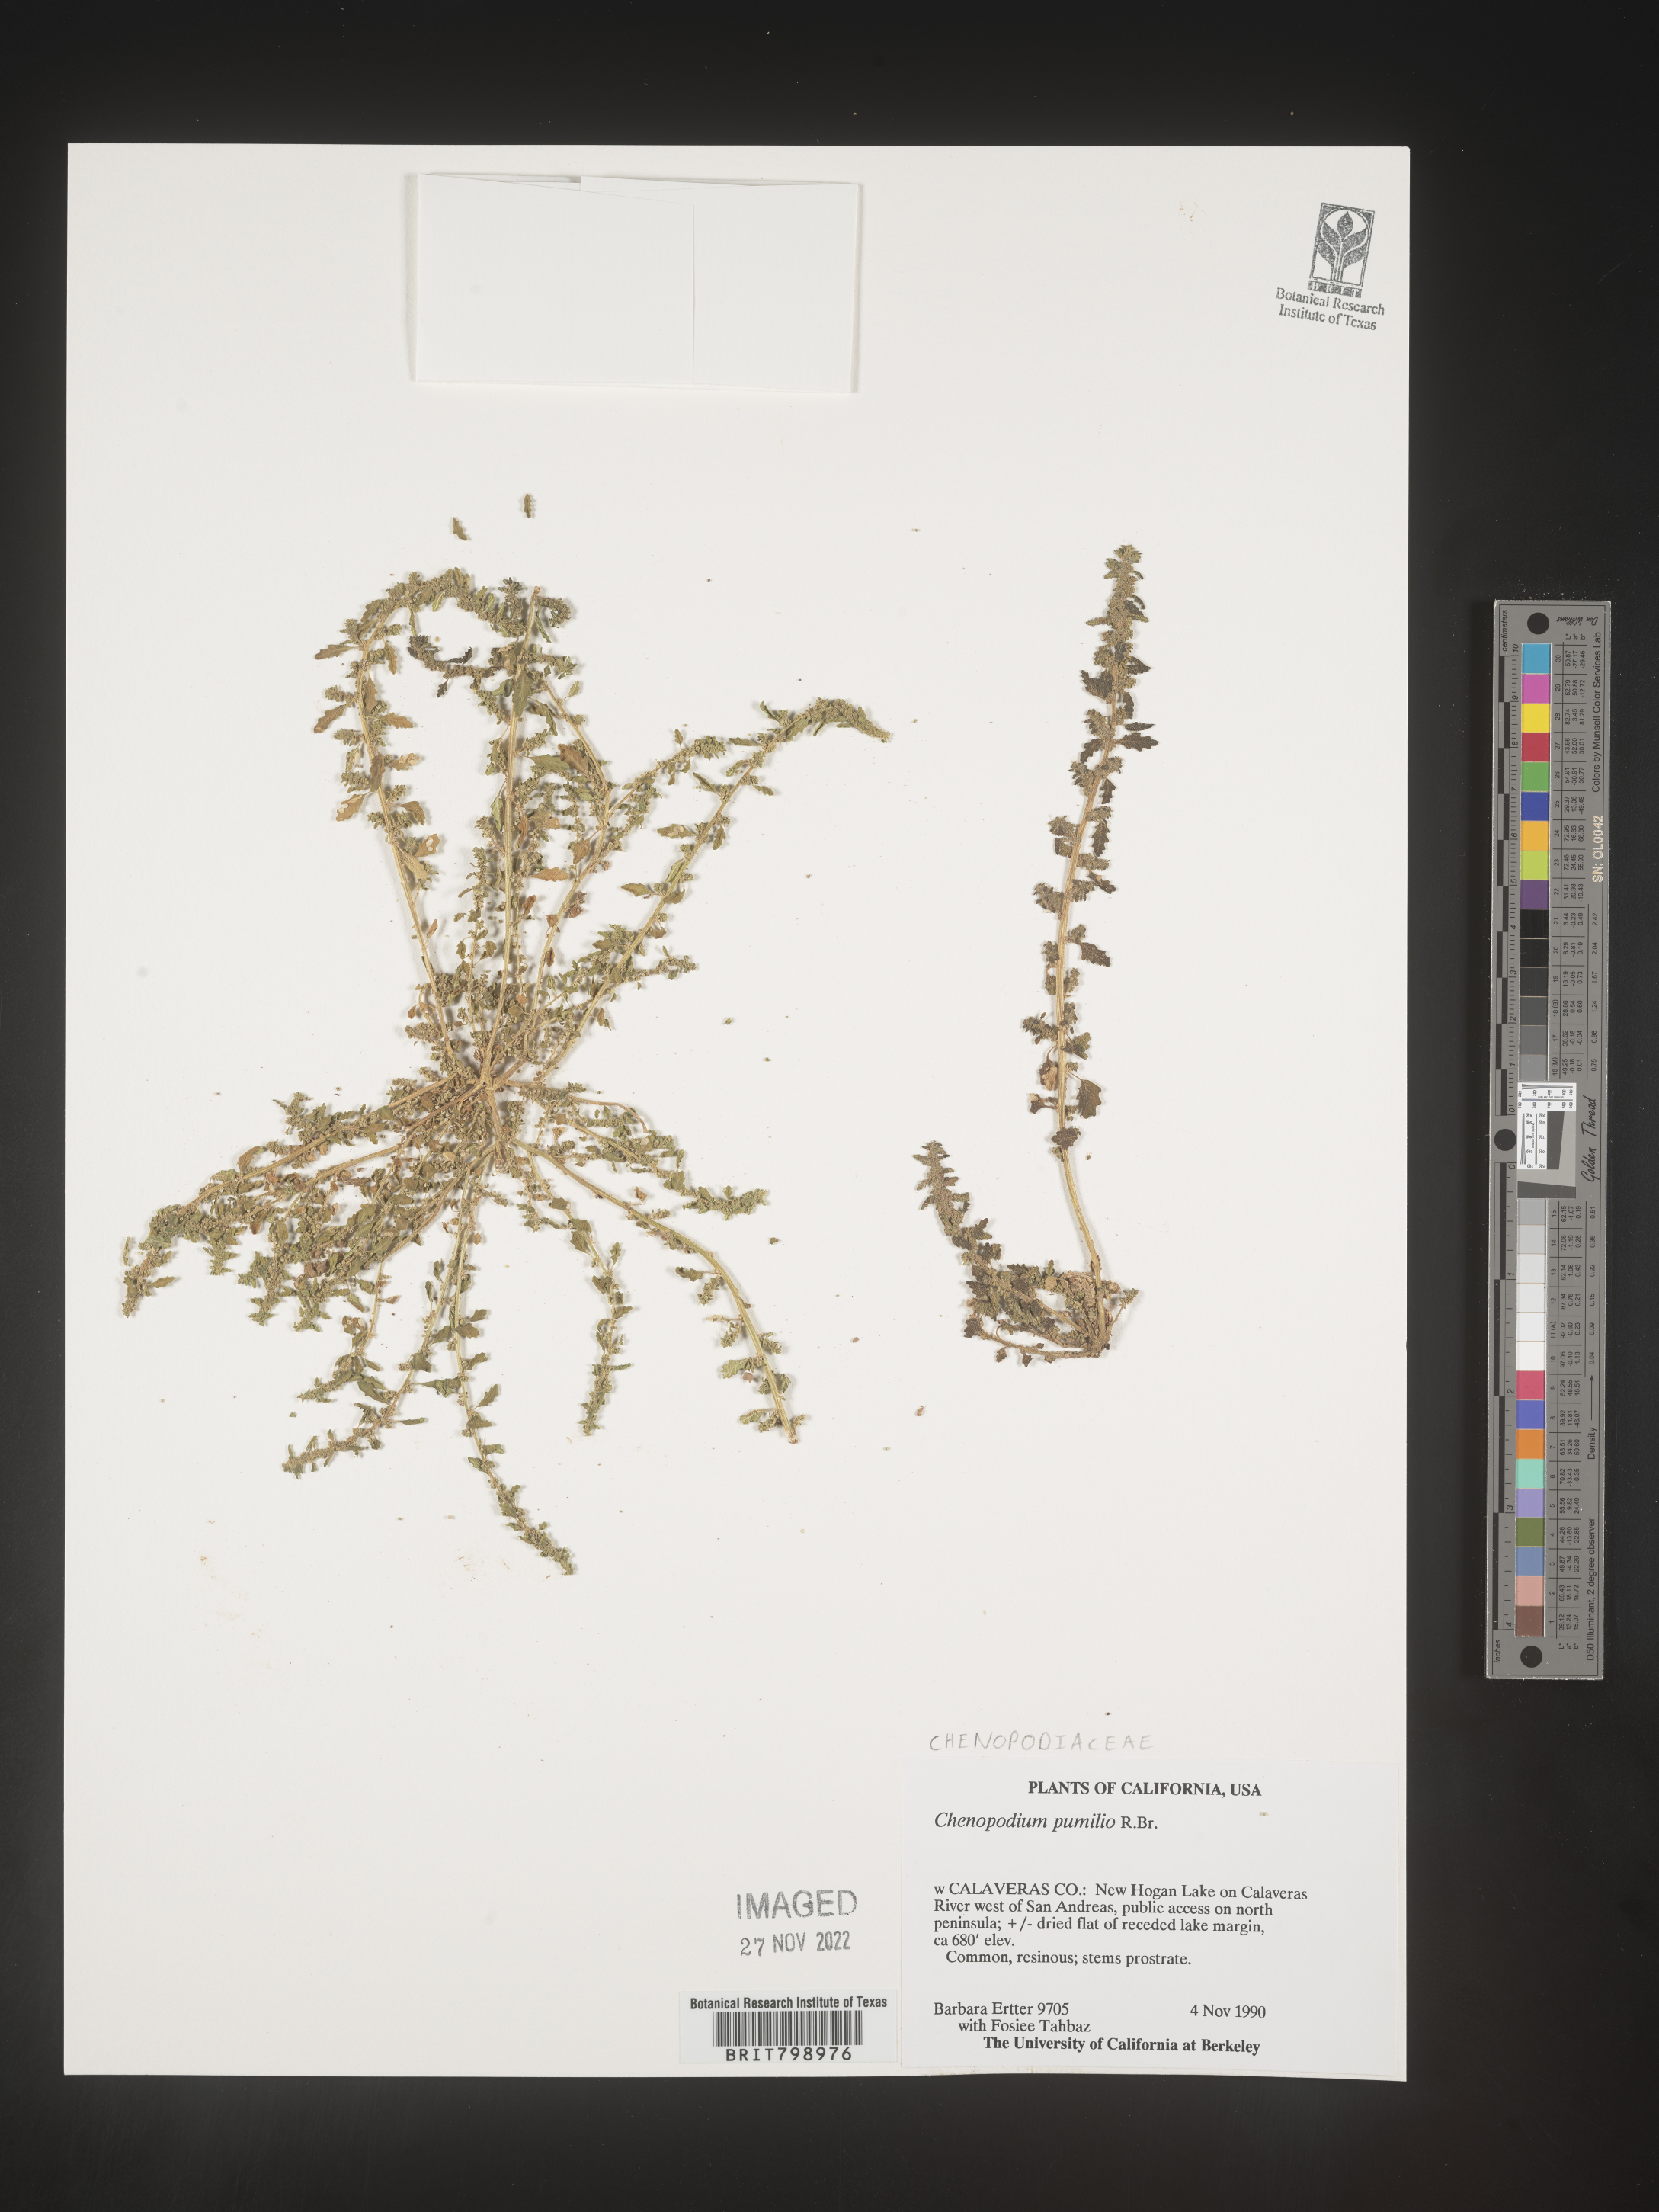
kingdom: Plantae
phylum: Tracheophyta
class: Magnoliopsida
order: Caryophyllales
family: Amaranthaceae
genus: Dysphania
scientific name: Dysphania pumilio
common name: Clammy goosefoot
